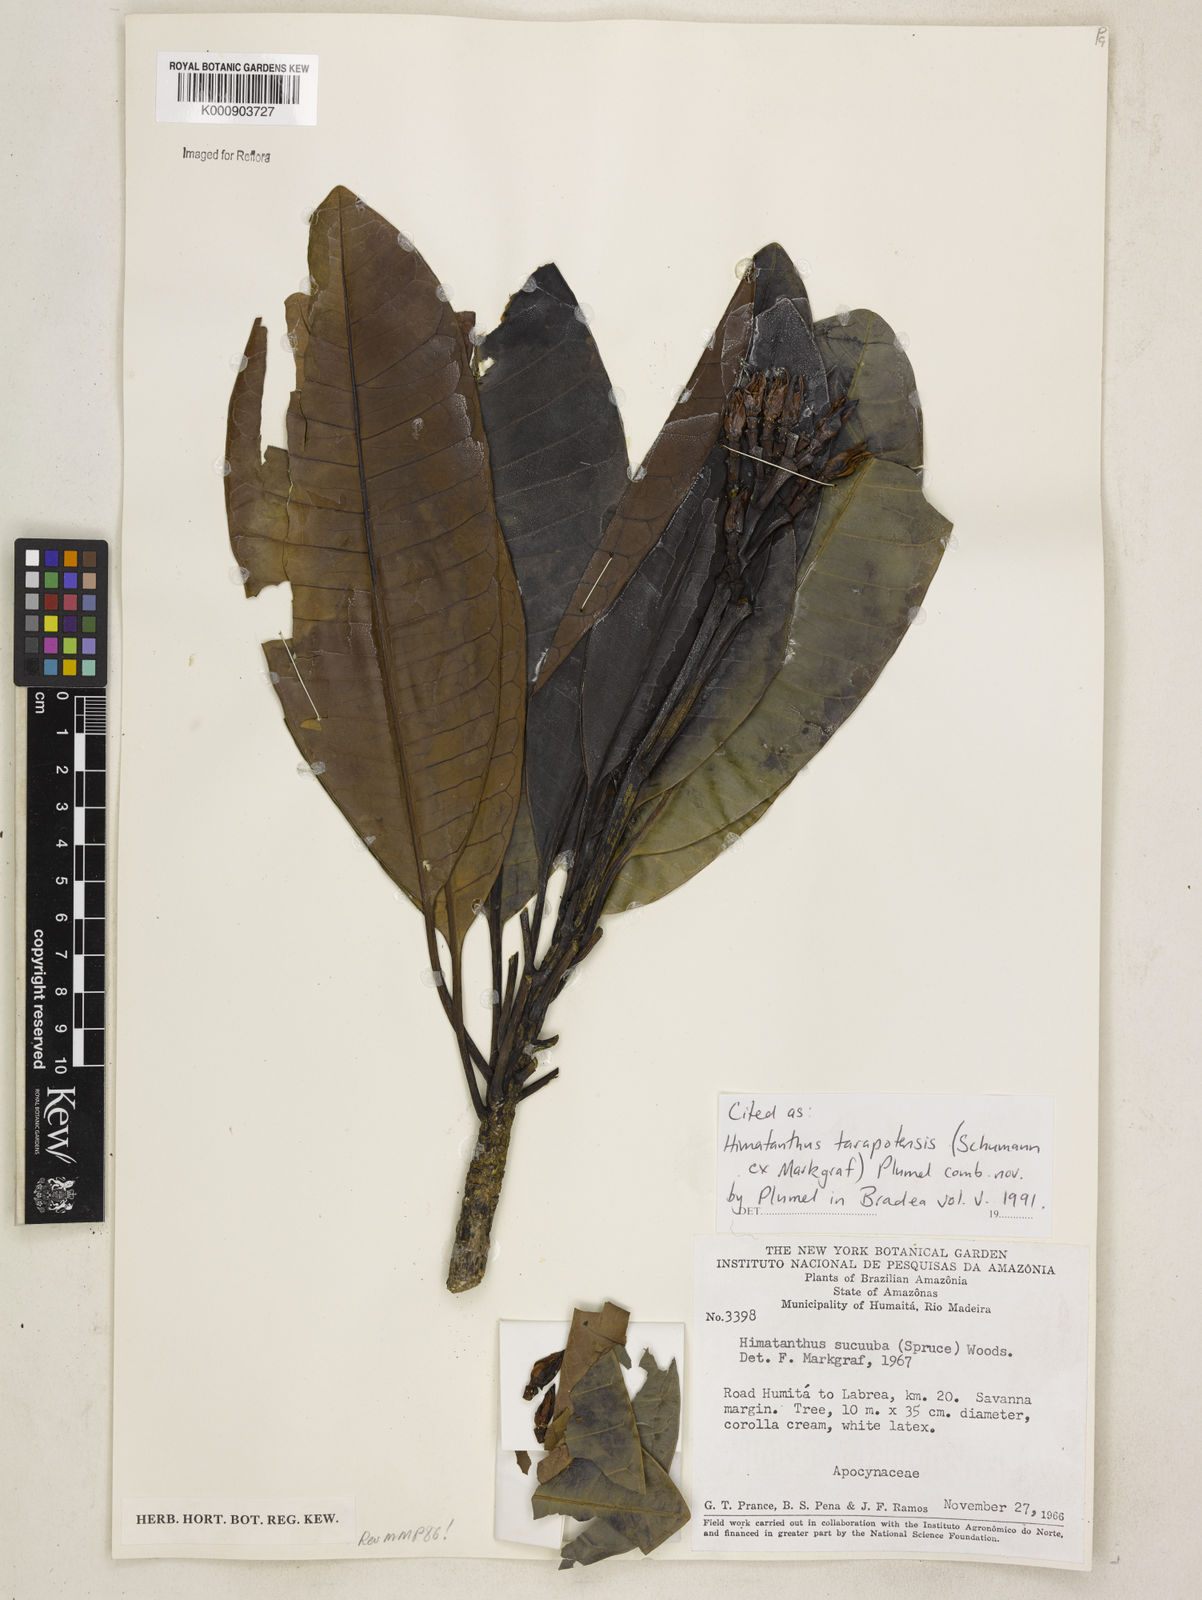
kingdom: Plantae
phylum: Tracheophyta
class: Magnoliopsida
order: Gentianales
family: Apocynaceae
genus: Himatanthus
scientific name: Himatanthus tarapotensis
